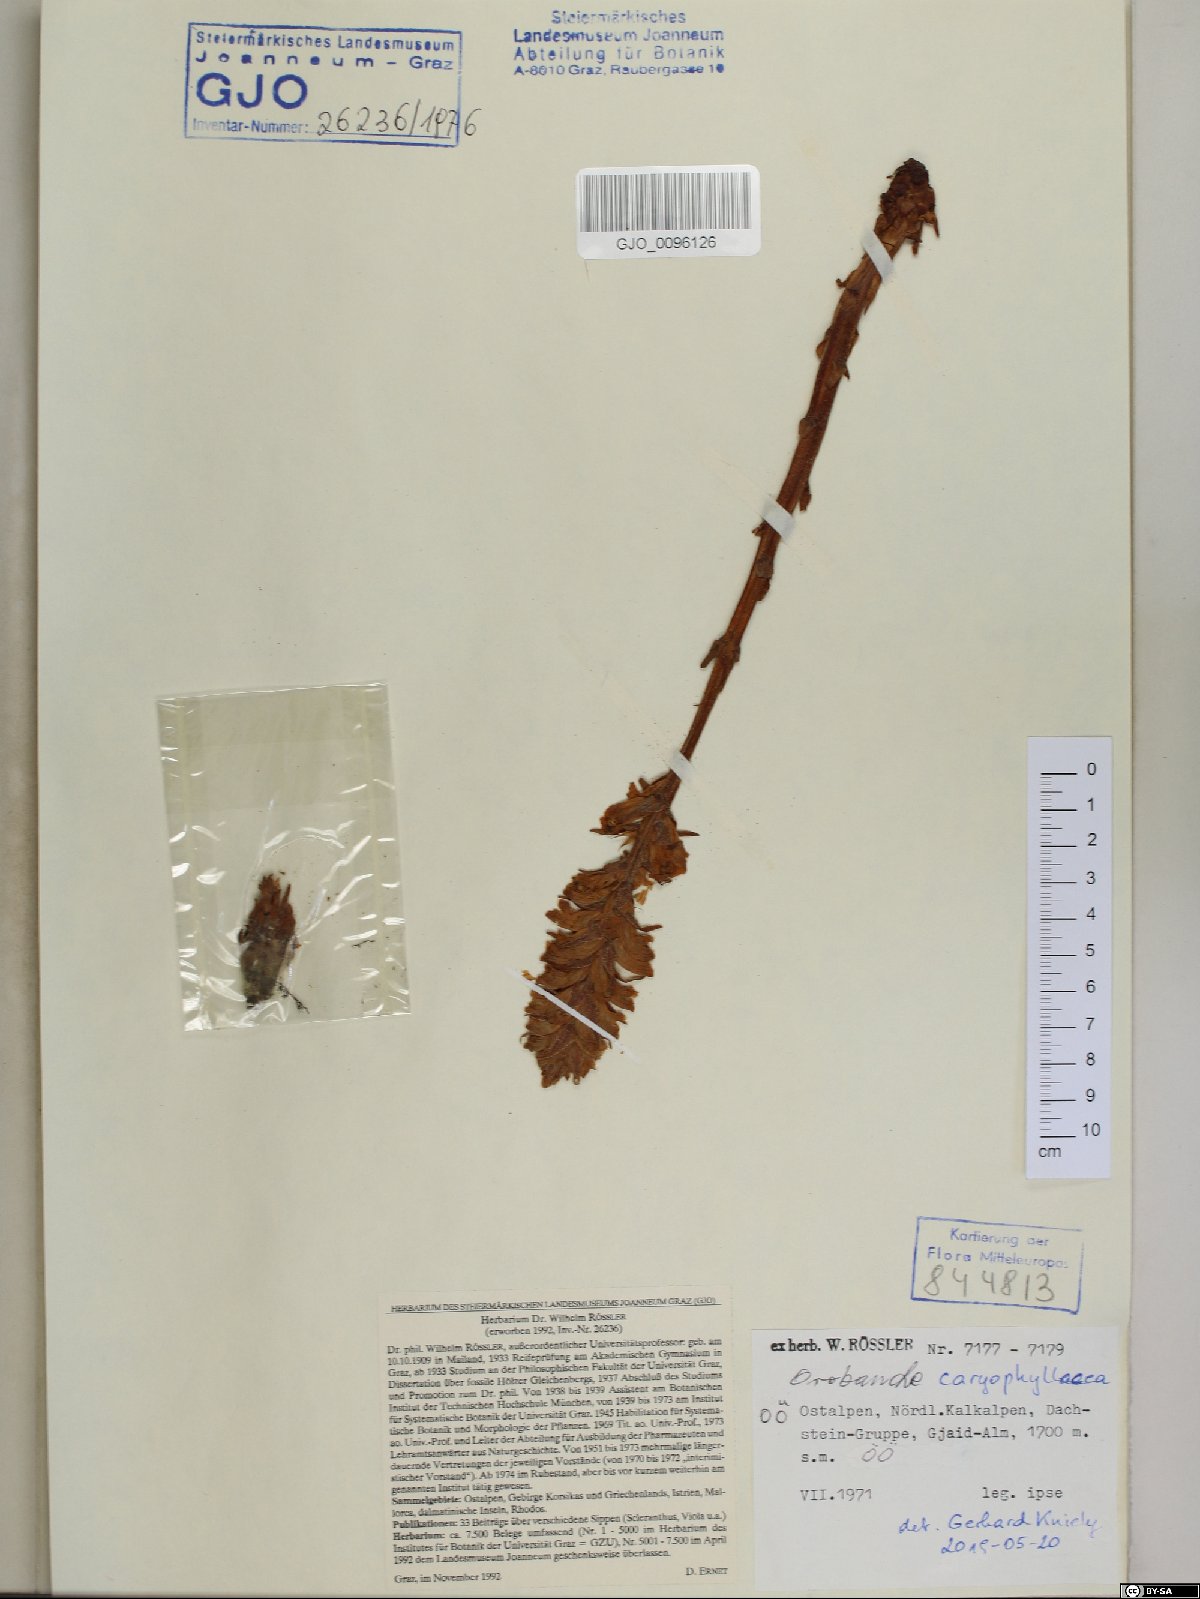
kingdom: Plantae
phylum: Tracheophyta
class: Magnoliopsida
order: Lamiales
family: Orobanchaceae
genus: Orobanche
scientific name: Orobanche caryophyllacea
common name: Bedstraw broomrape
